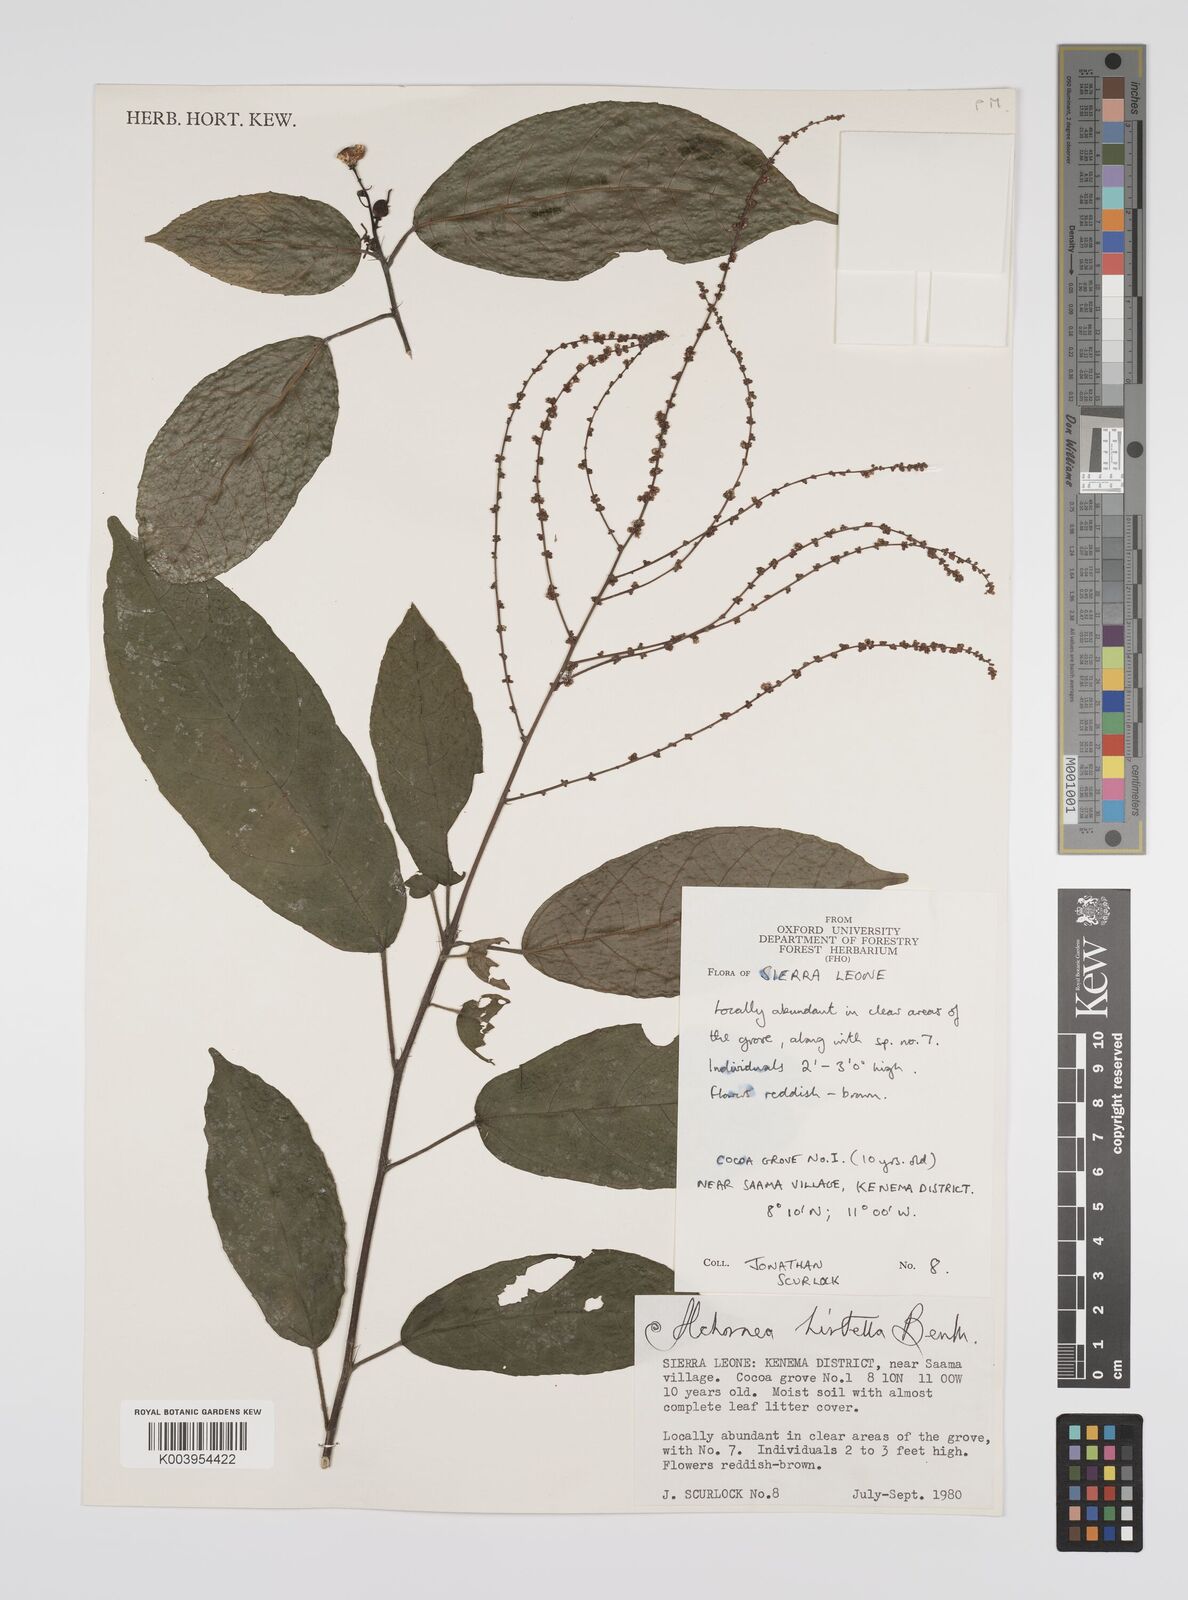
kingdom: Plantae
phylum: Tracheophyta
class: Magnoliopsida
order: Malpighiales
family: Euphorbiaceae
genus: Alchornea
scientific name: Alchornea hirtella
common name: Forest bead-string
